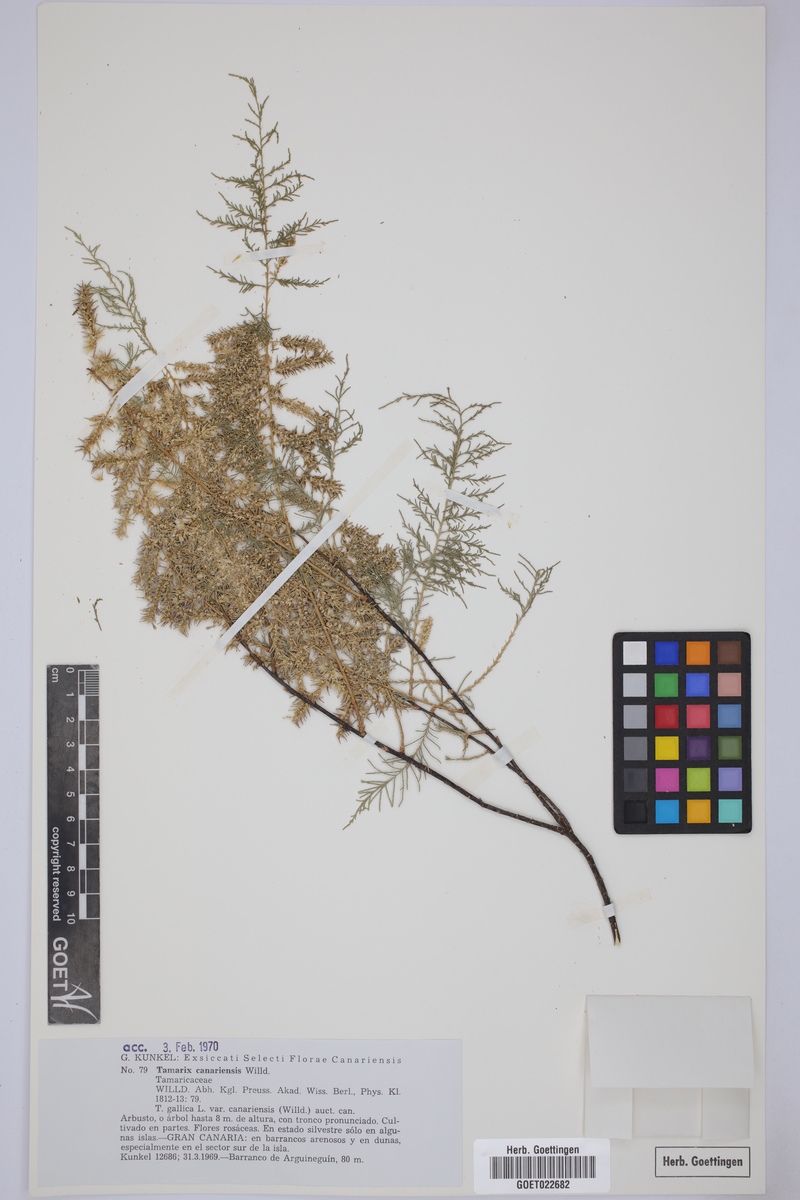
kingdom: Plantae
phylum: Tracheophyta
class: Magnoliopsida
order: Caryophyllales
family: Tamaricaceae
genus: Tamarix
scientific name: Tamarix canariensis
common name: Canary island tamarisk
